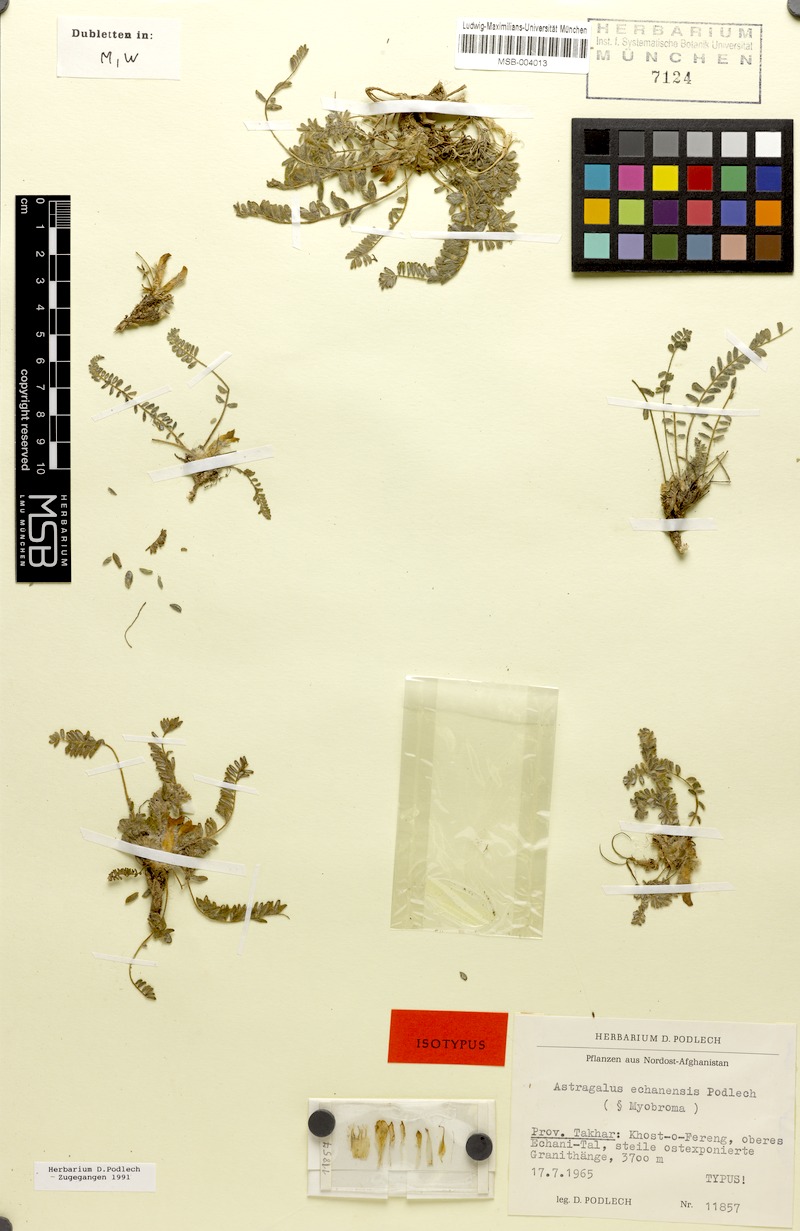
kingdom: Plantae
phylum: Tracheophyta
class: Magnoliopsida
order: Fabales
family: Fabaceae
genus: Astragalus
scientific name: Astragalus echanensis
